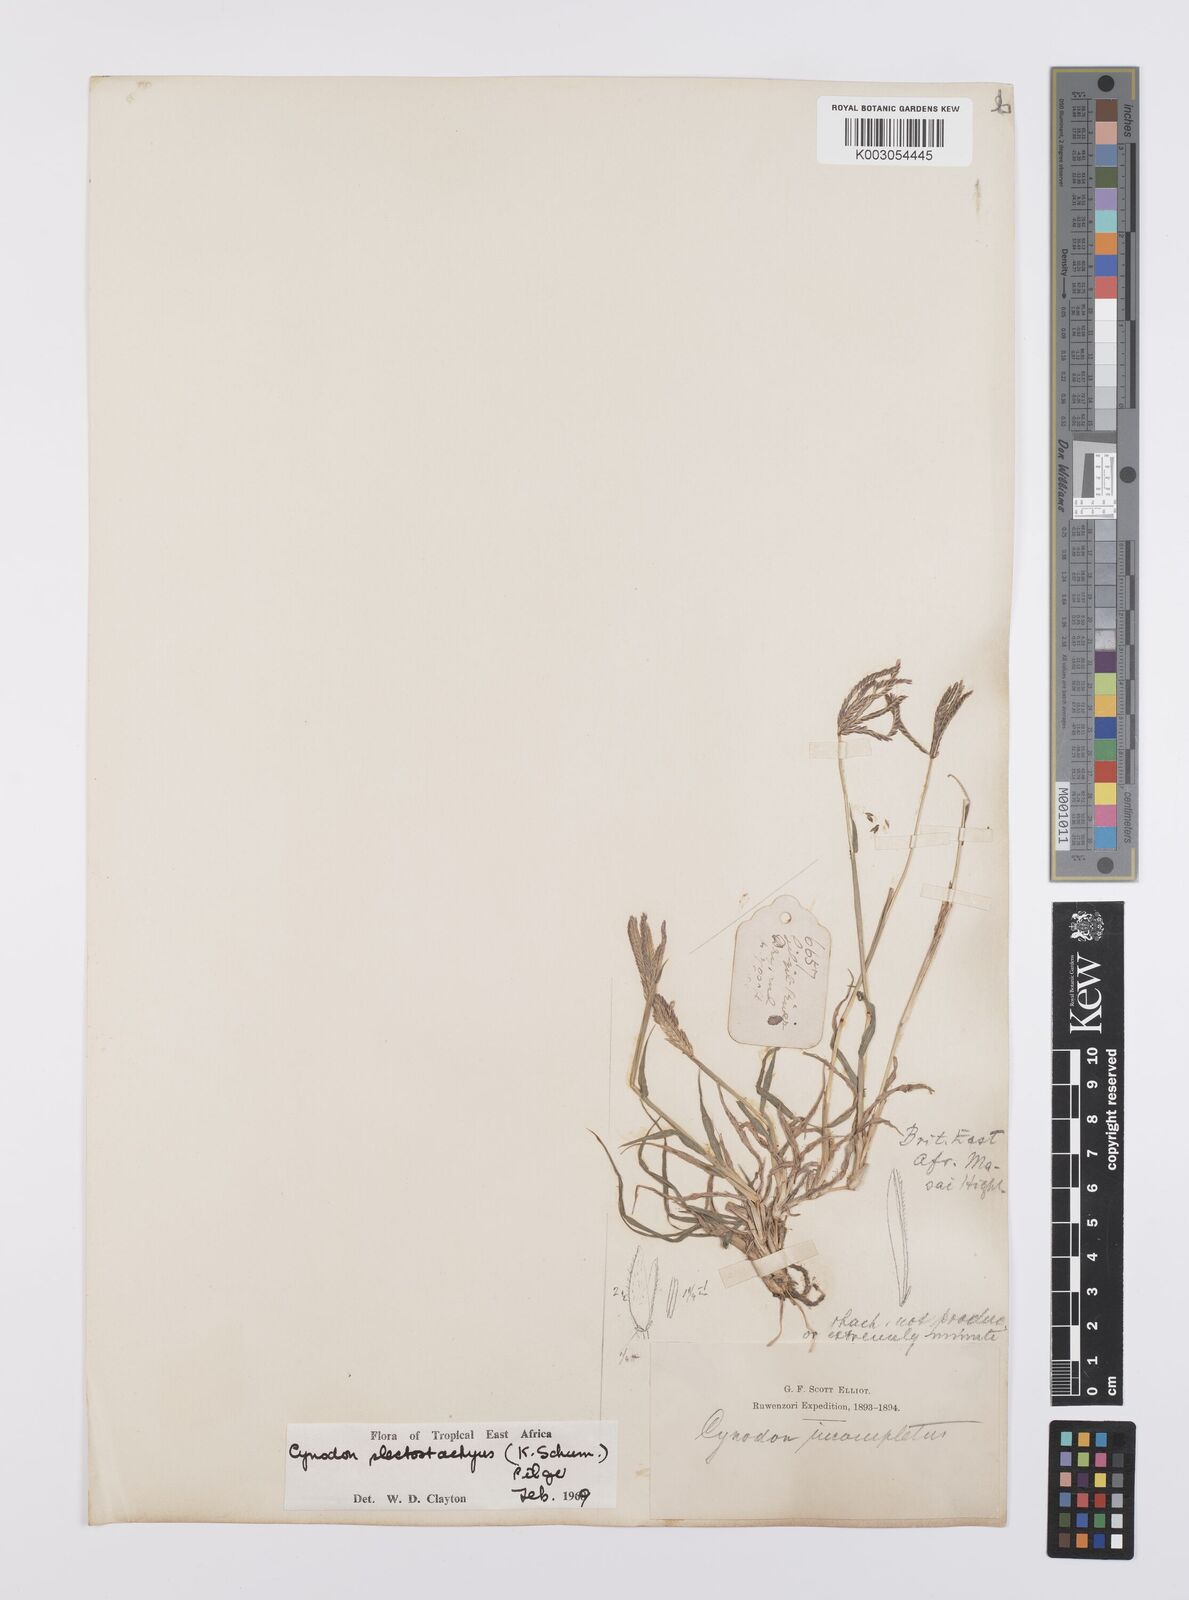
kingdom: Plantae
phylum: Tracheophyta
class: Liliopsida
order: Poales
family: Poaceae
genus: Cynodon
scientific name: Cynodon plectostachyus
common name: Stargrass
